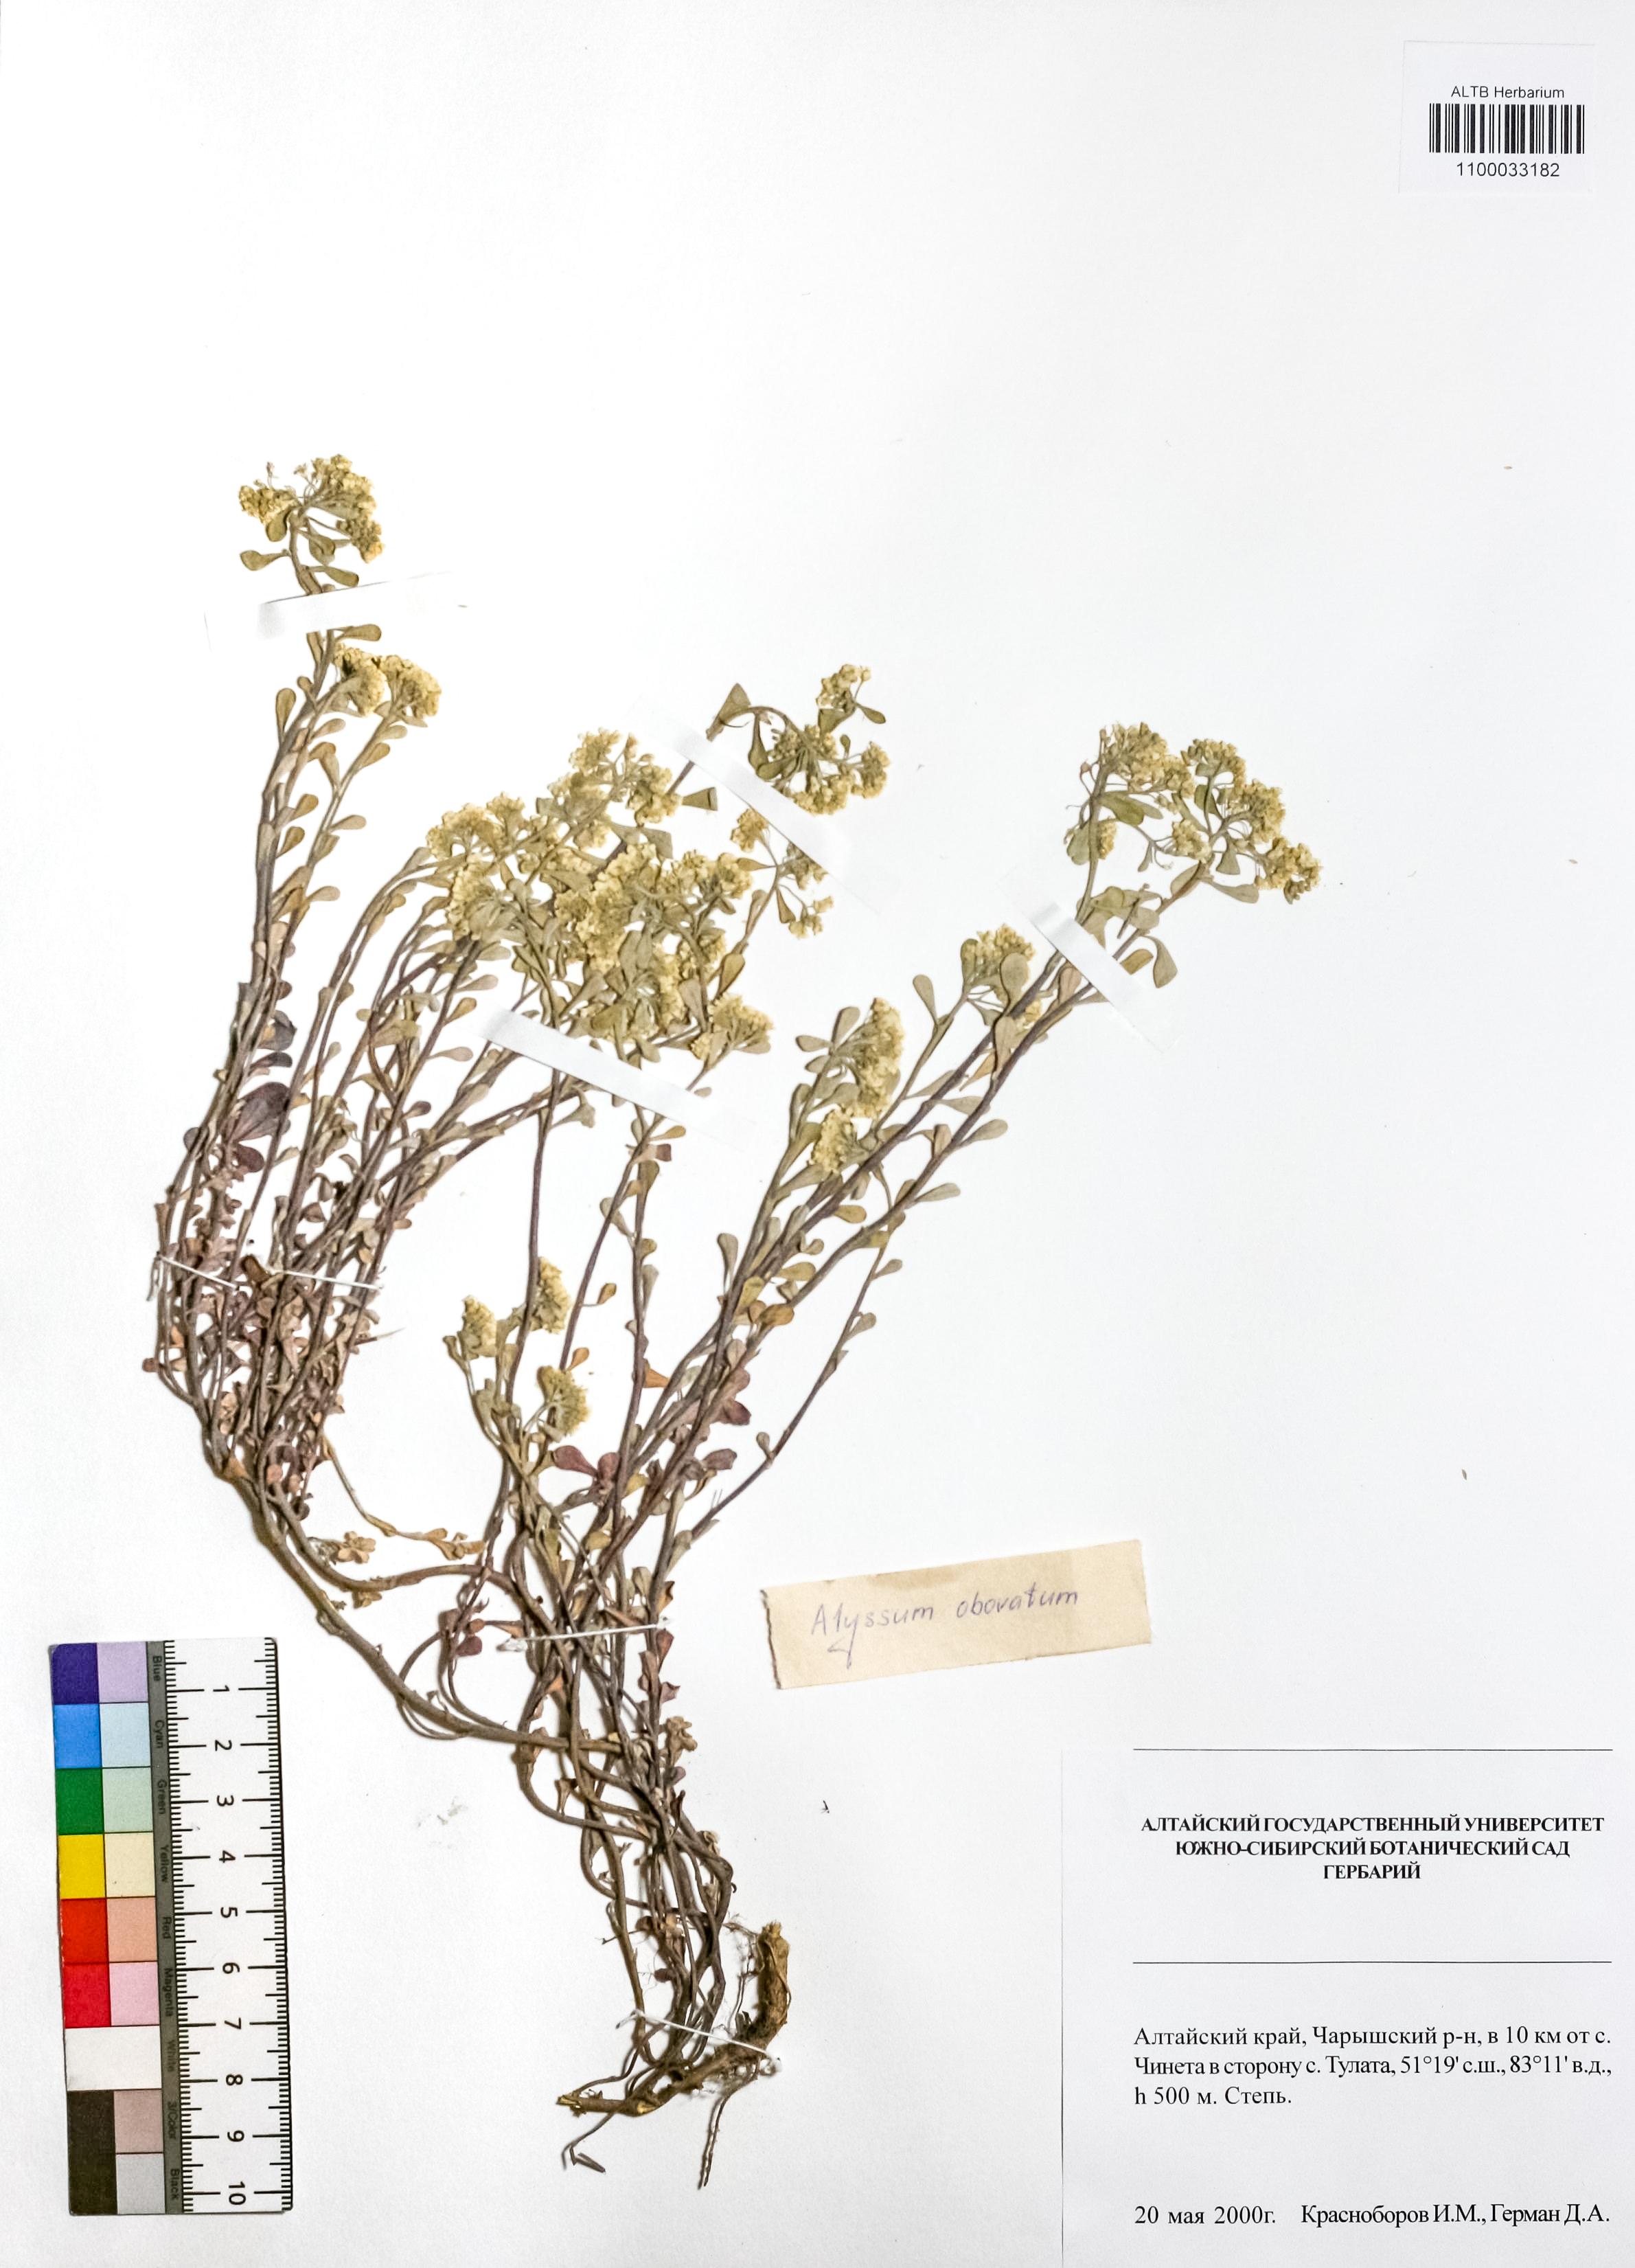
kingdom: Plantae
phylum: Tracheophyta
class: Magnoliopsida
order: Brassicales
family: Brassicaceae
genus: Odontarrhena
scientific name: Odontarrhena obovata
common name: American alyssum
